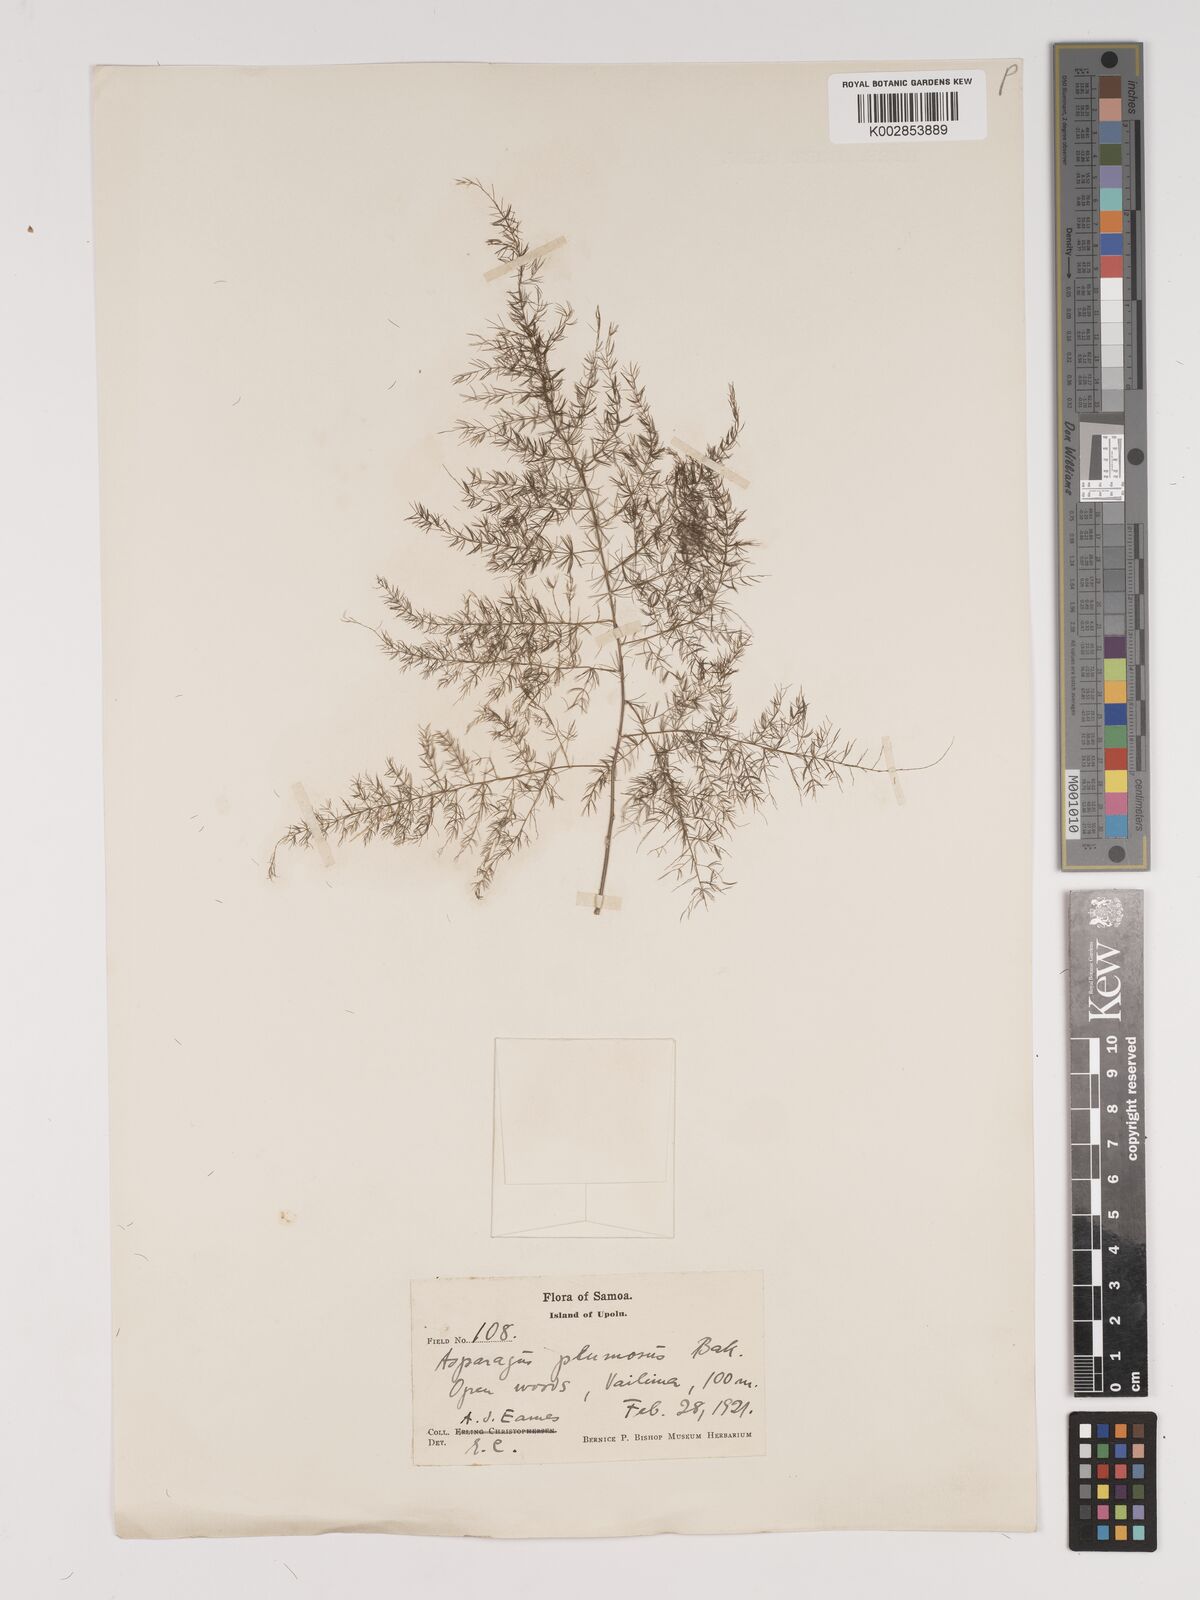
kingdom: Plantae
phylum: Tracheophyta
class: Liliopsida
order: Asparagales
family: Asparagaceae
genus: Asparagus
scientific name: Asparagus setaceus
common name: Common asparagus fern
